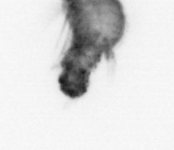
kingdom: Animalia
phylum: Annelida
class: Polychaeta
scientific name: Polychaeta
